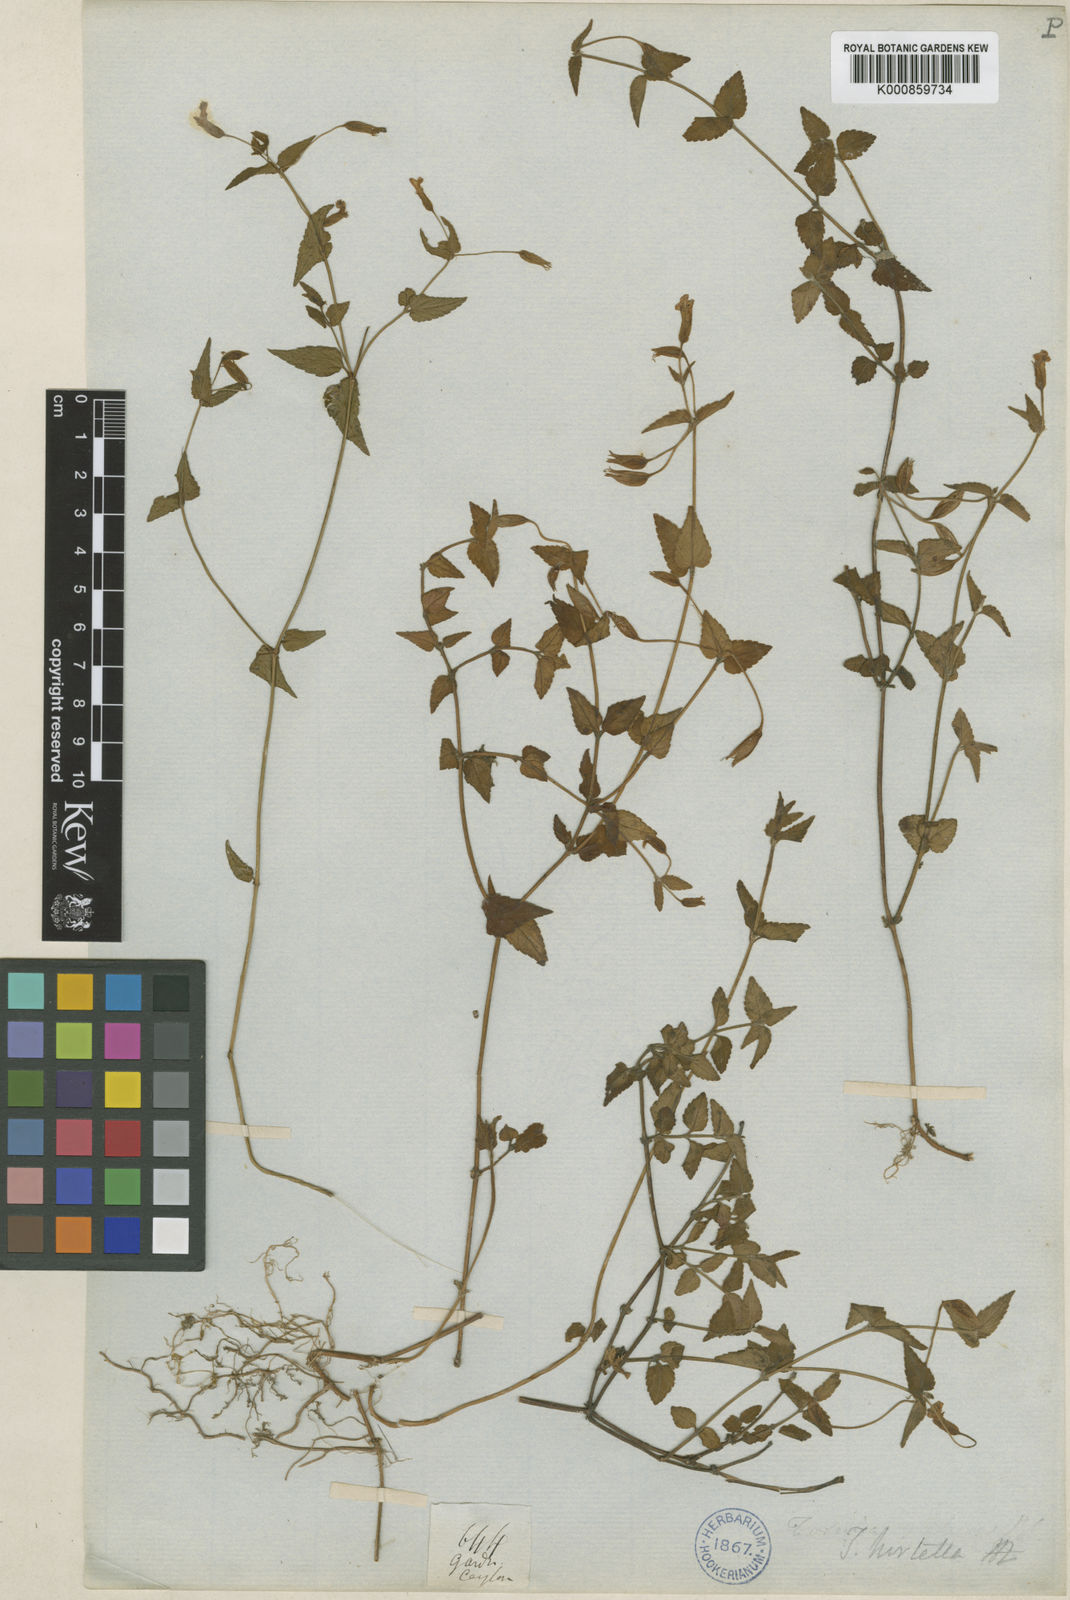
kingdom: Plantae
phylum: Tracheophyta
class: Magnoliopsida
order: Lamiales
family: Linderniaceae
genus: Torenia
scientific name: Torenia diffusa
